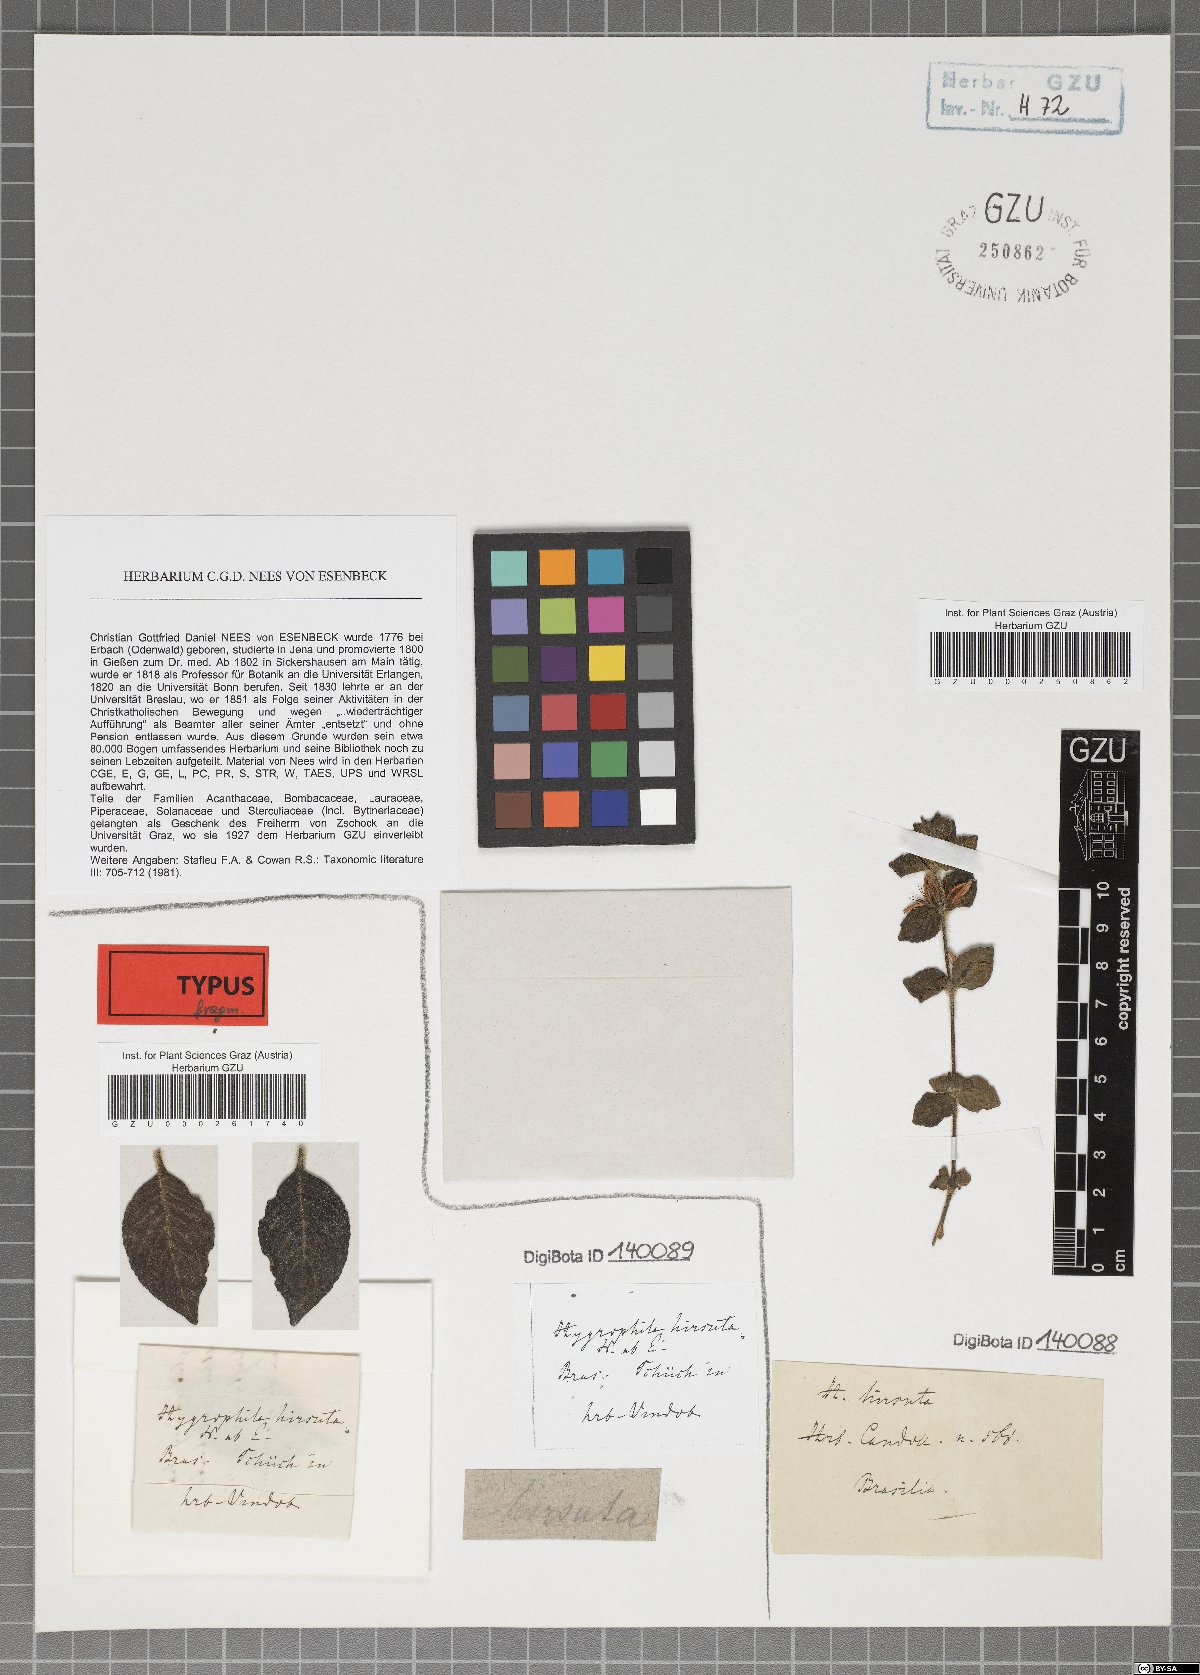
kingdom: Plantae
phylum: Tracheophyta
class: Magnoliopsida
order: Lamiales
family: Acanthaceae
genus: Hygrophila
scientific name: Hygrophila hirsuta
